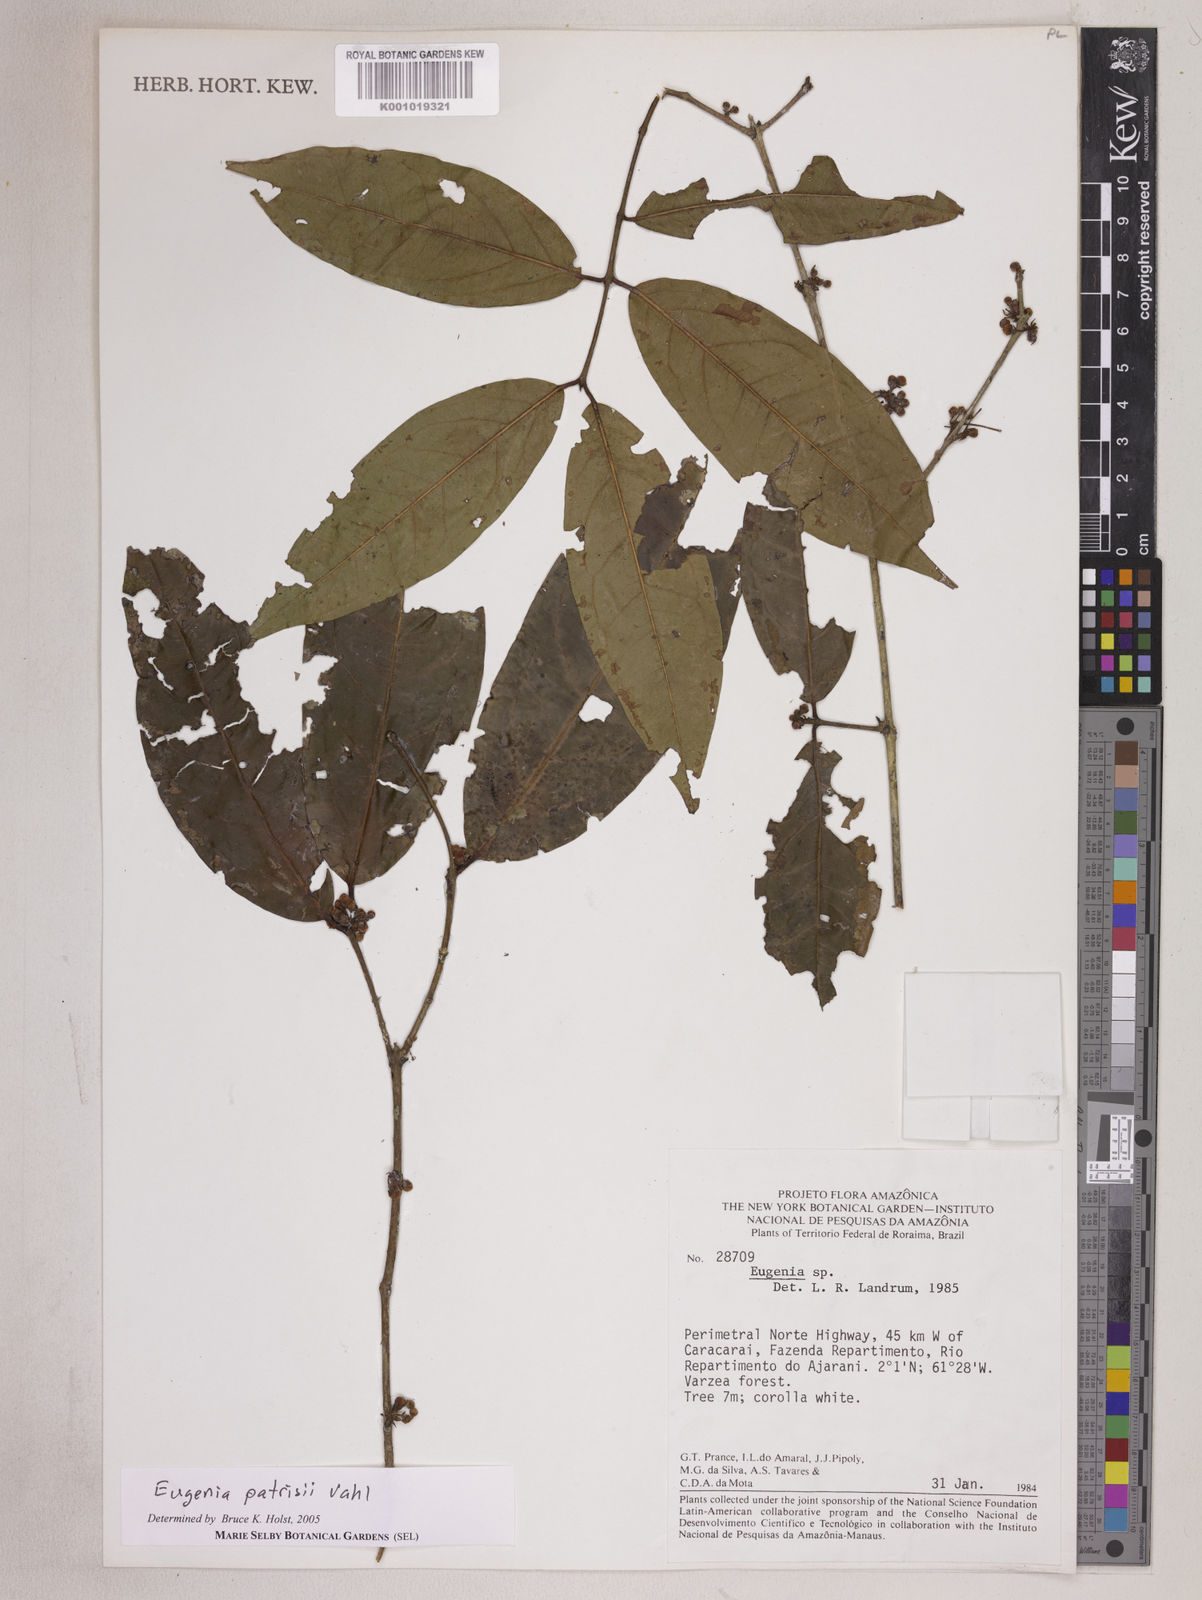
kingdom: Plantae
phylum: Tracheophyta
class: Magnoliopsida
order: Myrtales
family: Myrtaceae
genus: Eugenia
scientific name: Eugenia patrisii
